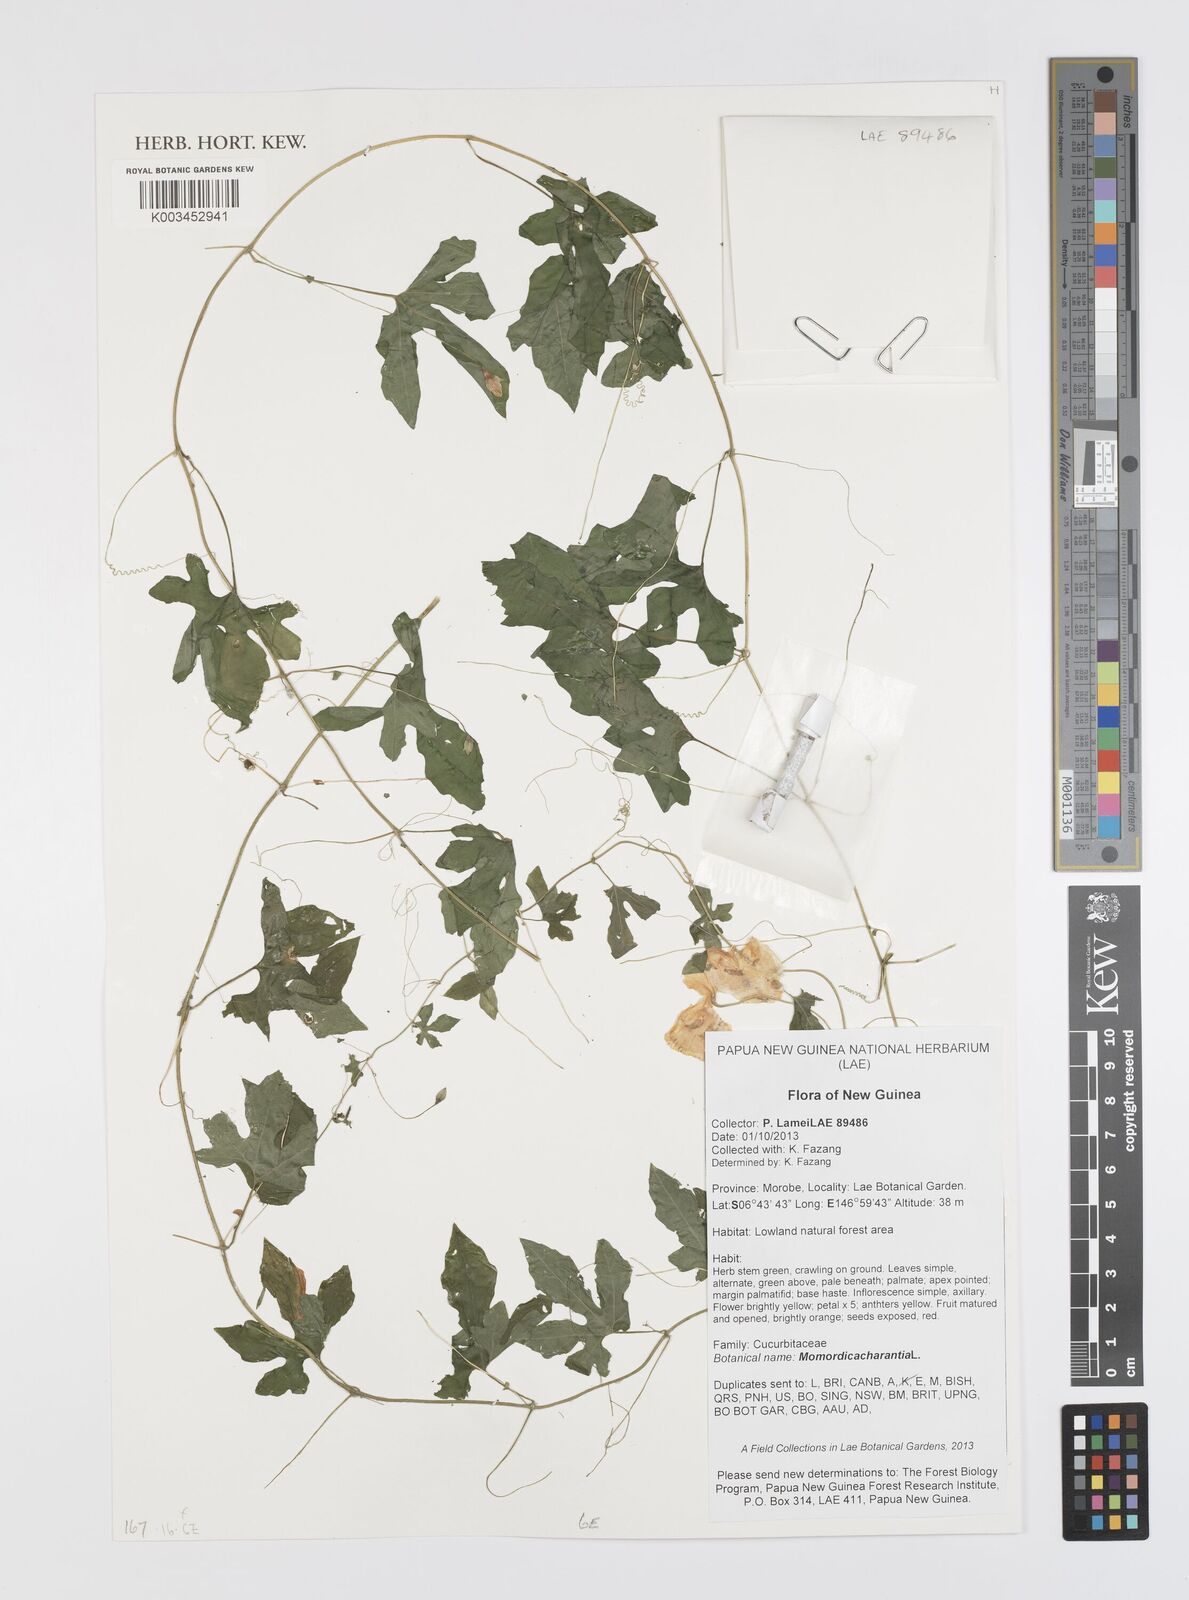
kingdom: Plantae
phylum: Tracheophyta
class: Magnoliopsida
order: Cucurbitales
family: Cucurbitaceae
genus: Momordica
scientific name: Momordica charantia
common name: Balsampear
